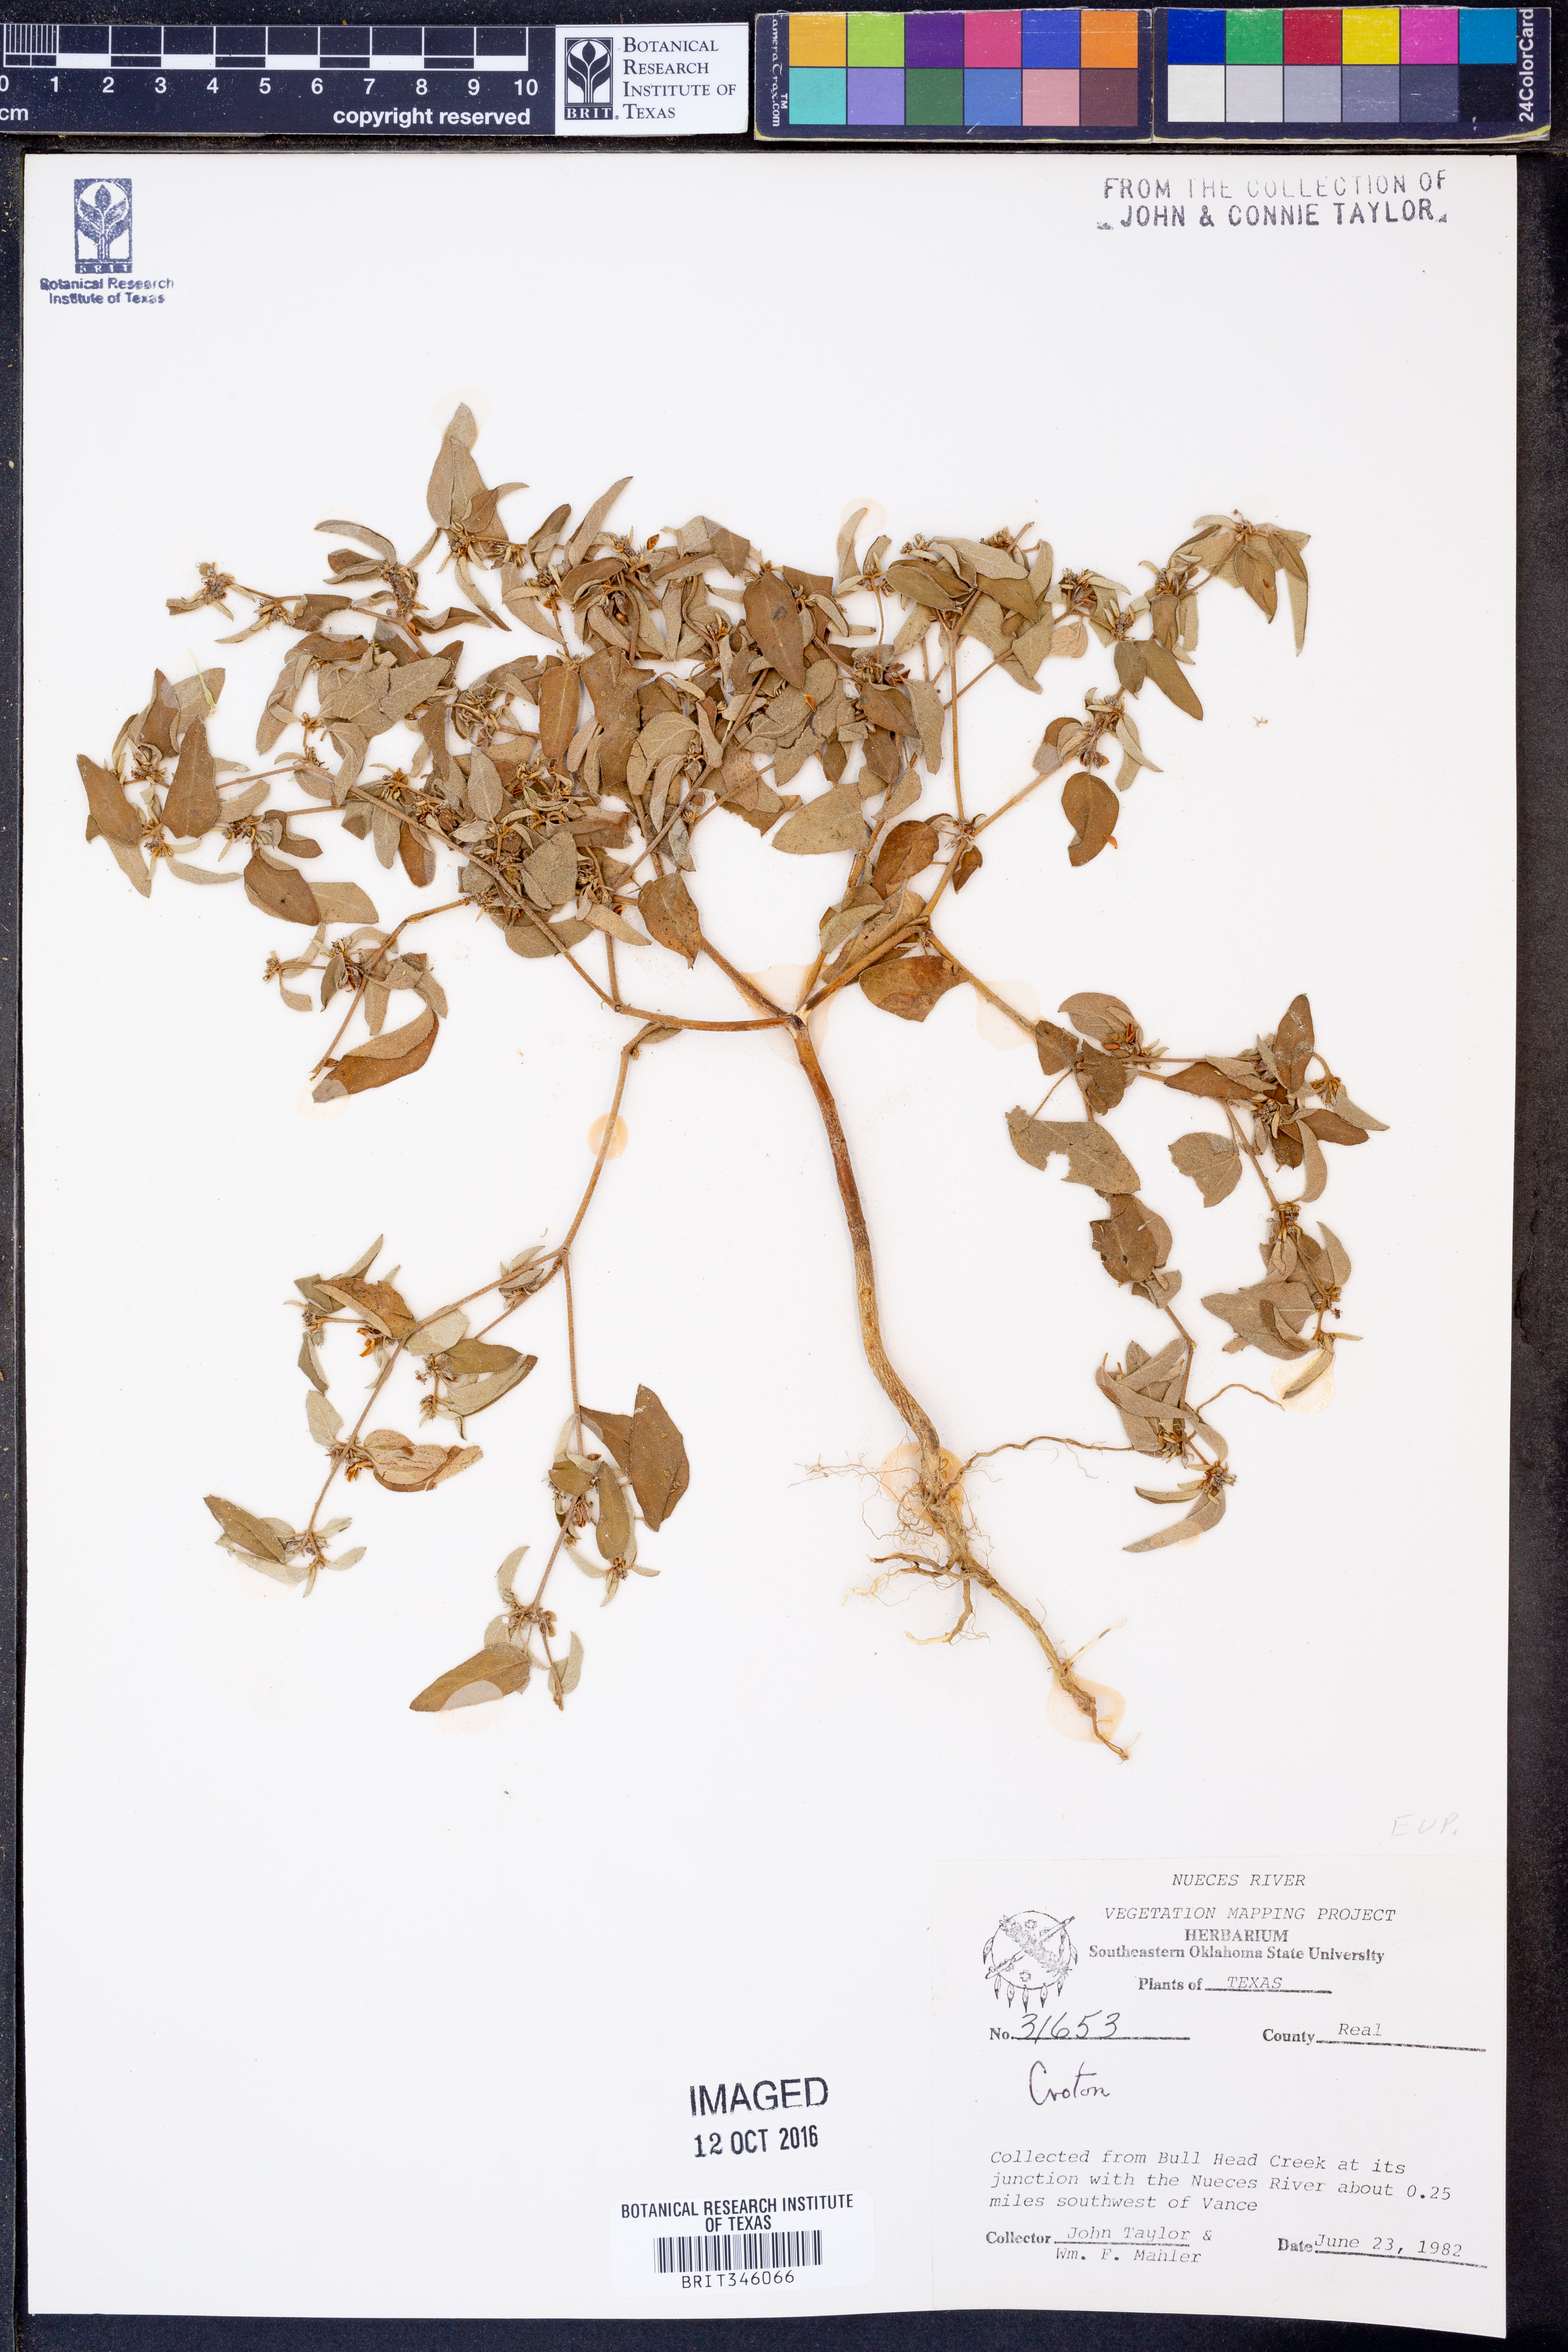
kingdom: Plantae
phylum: Tracheophyta
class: Magnoliopsida
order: Malpighiales
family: Euphorbiaceae
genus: Croton
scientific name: Croton
